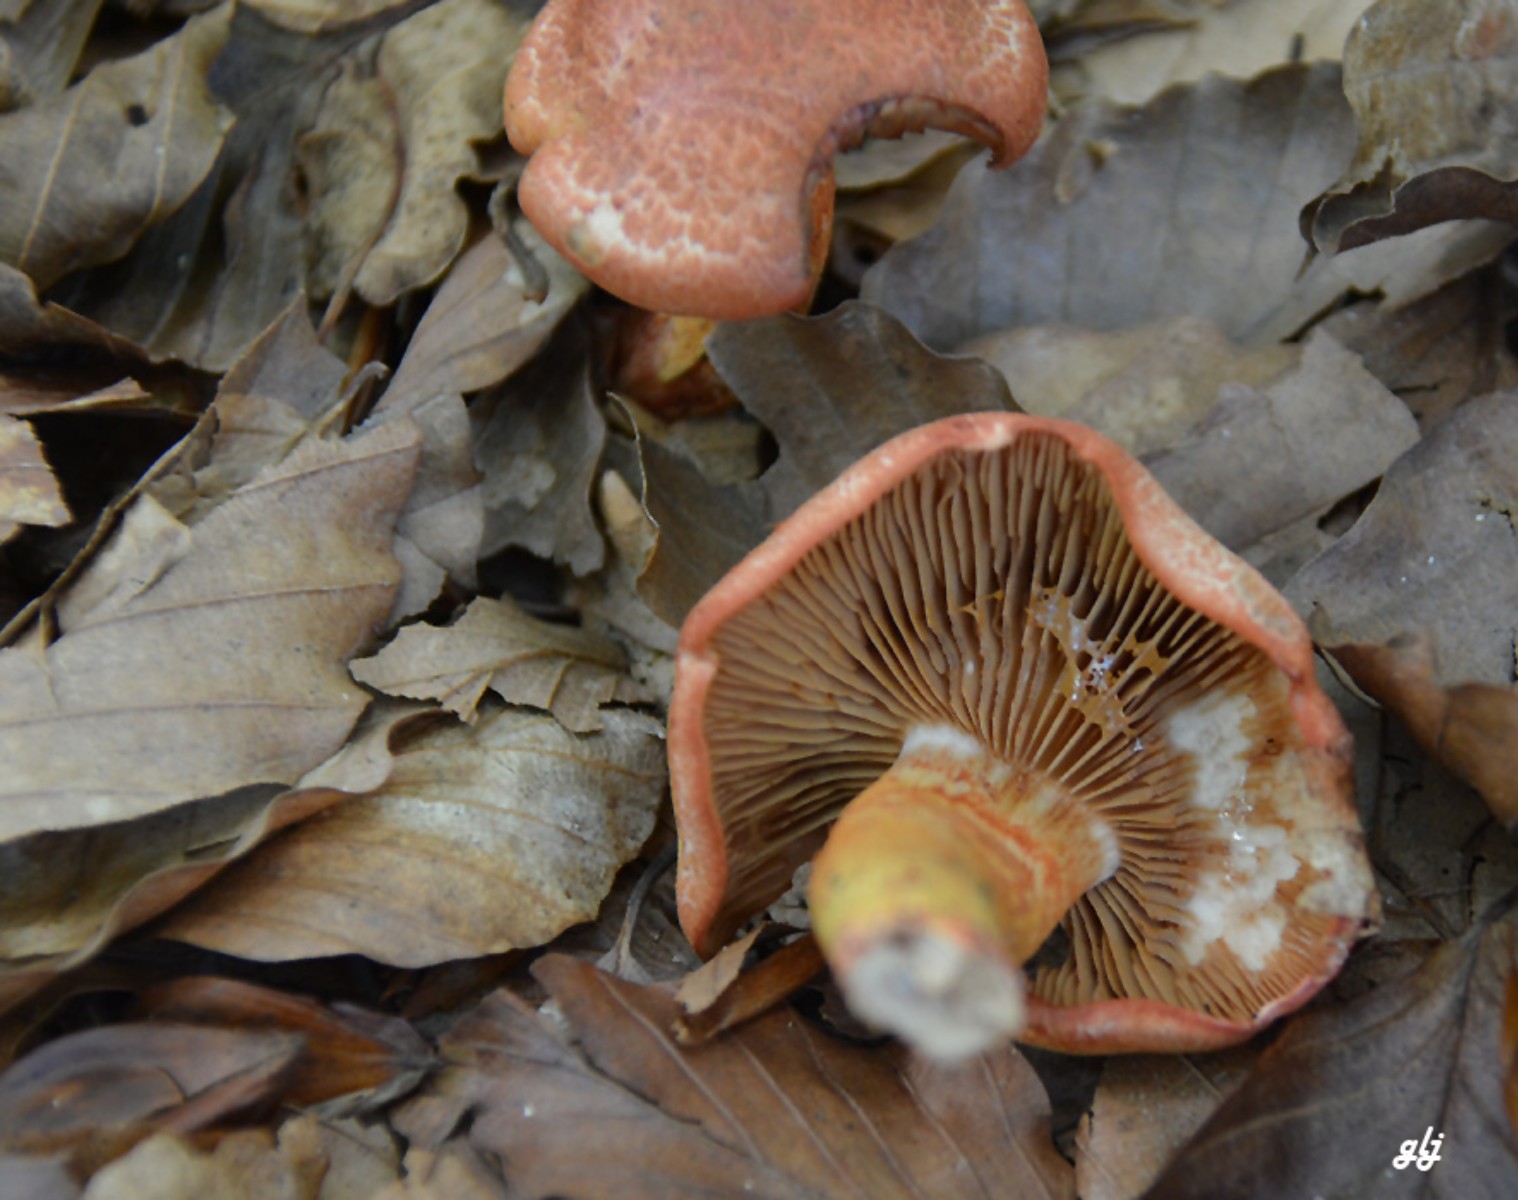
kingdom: Fungi
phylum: Basidiomycota
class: Agaricomycetes
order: Agaricales
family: Cortinariaceae
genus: Cortinarius
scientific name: Cortinarius bolaris
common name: cinnoberskællet slørhat
